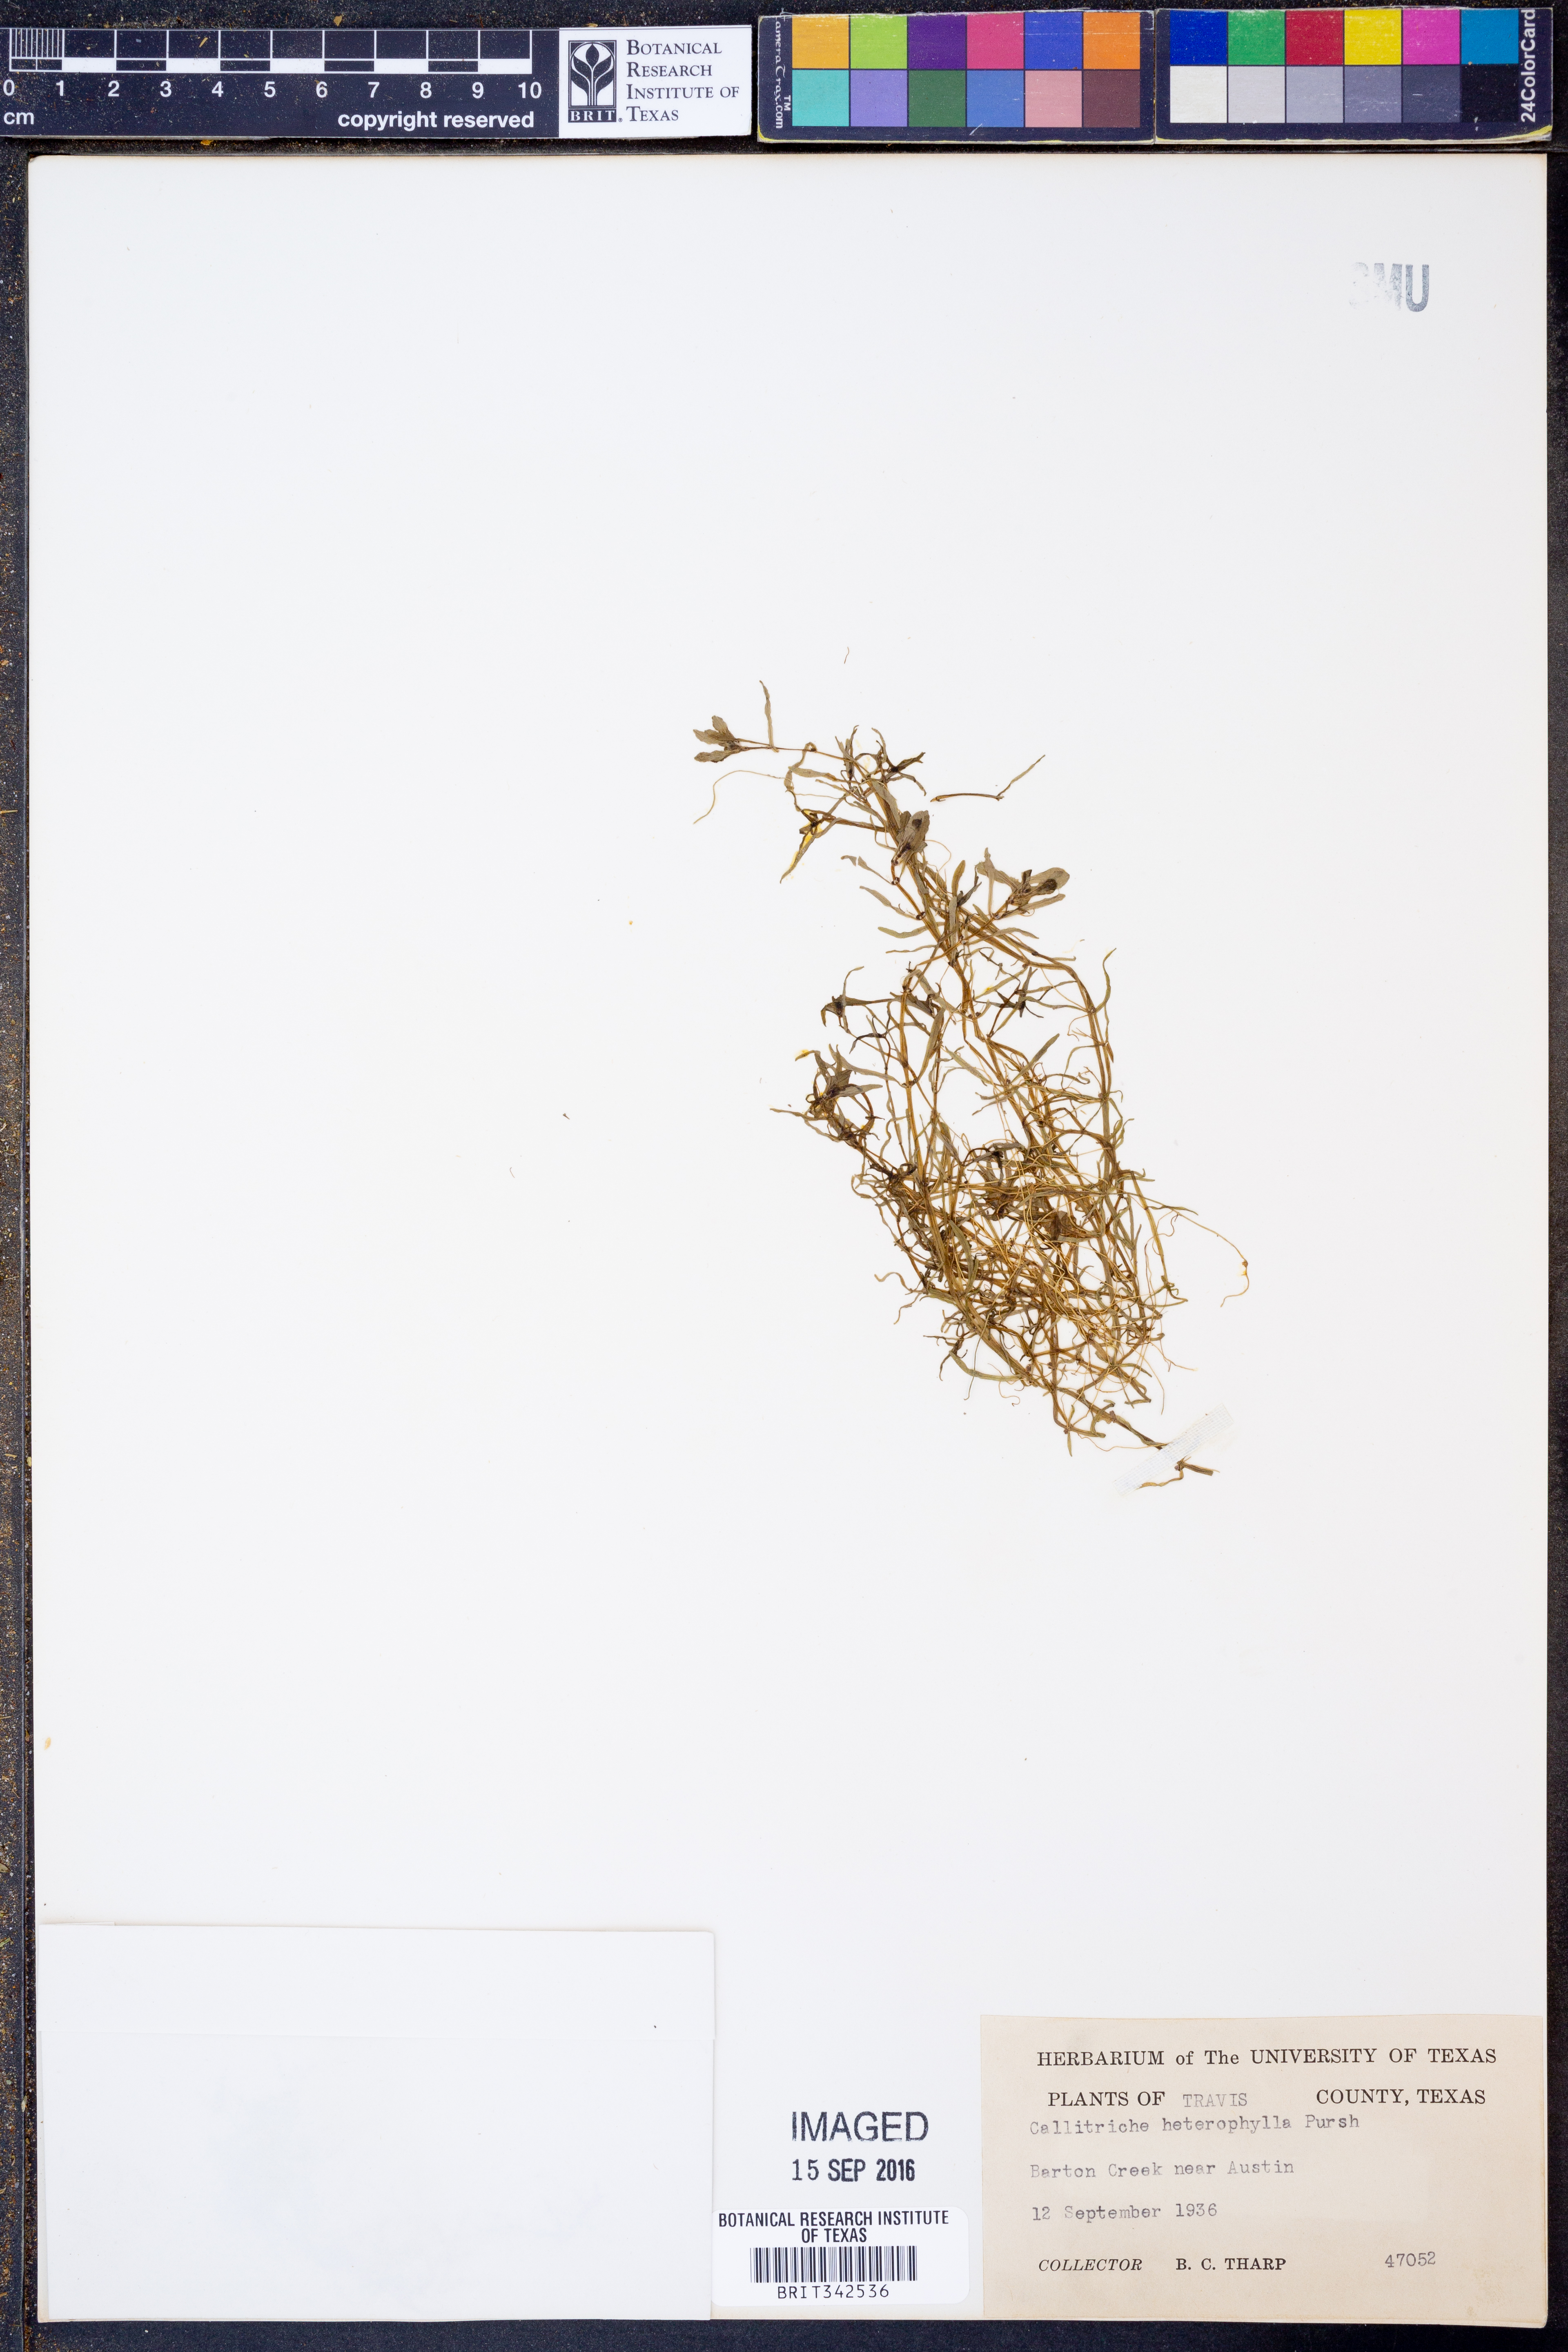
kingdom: Plantae
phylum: Tracheophyta
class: Magnoliopsida
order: Lamiales
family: Plantaginaceae
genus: Callitriche
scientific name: Callitriche heterophylla
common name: Two-headed water-starwort
